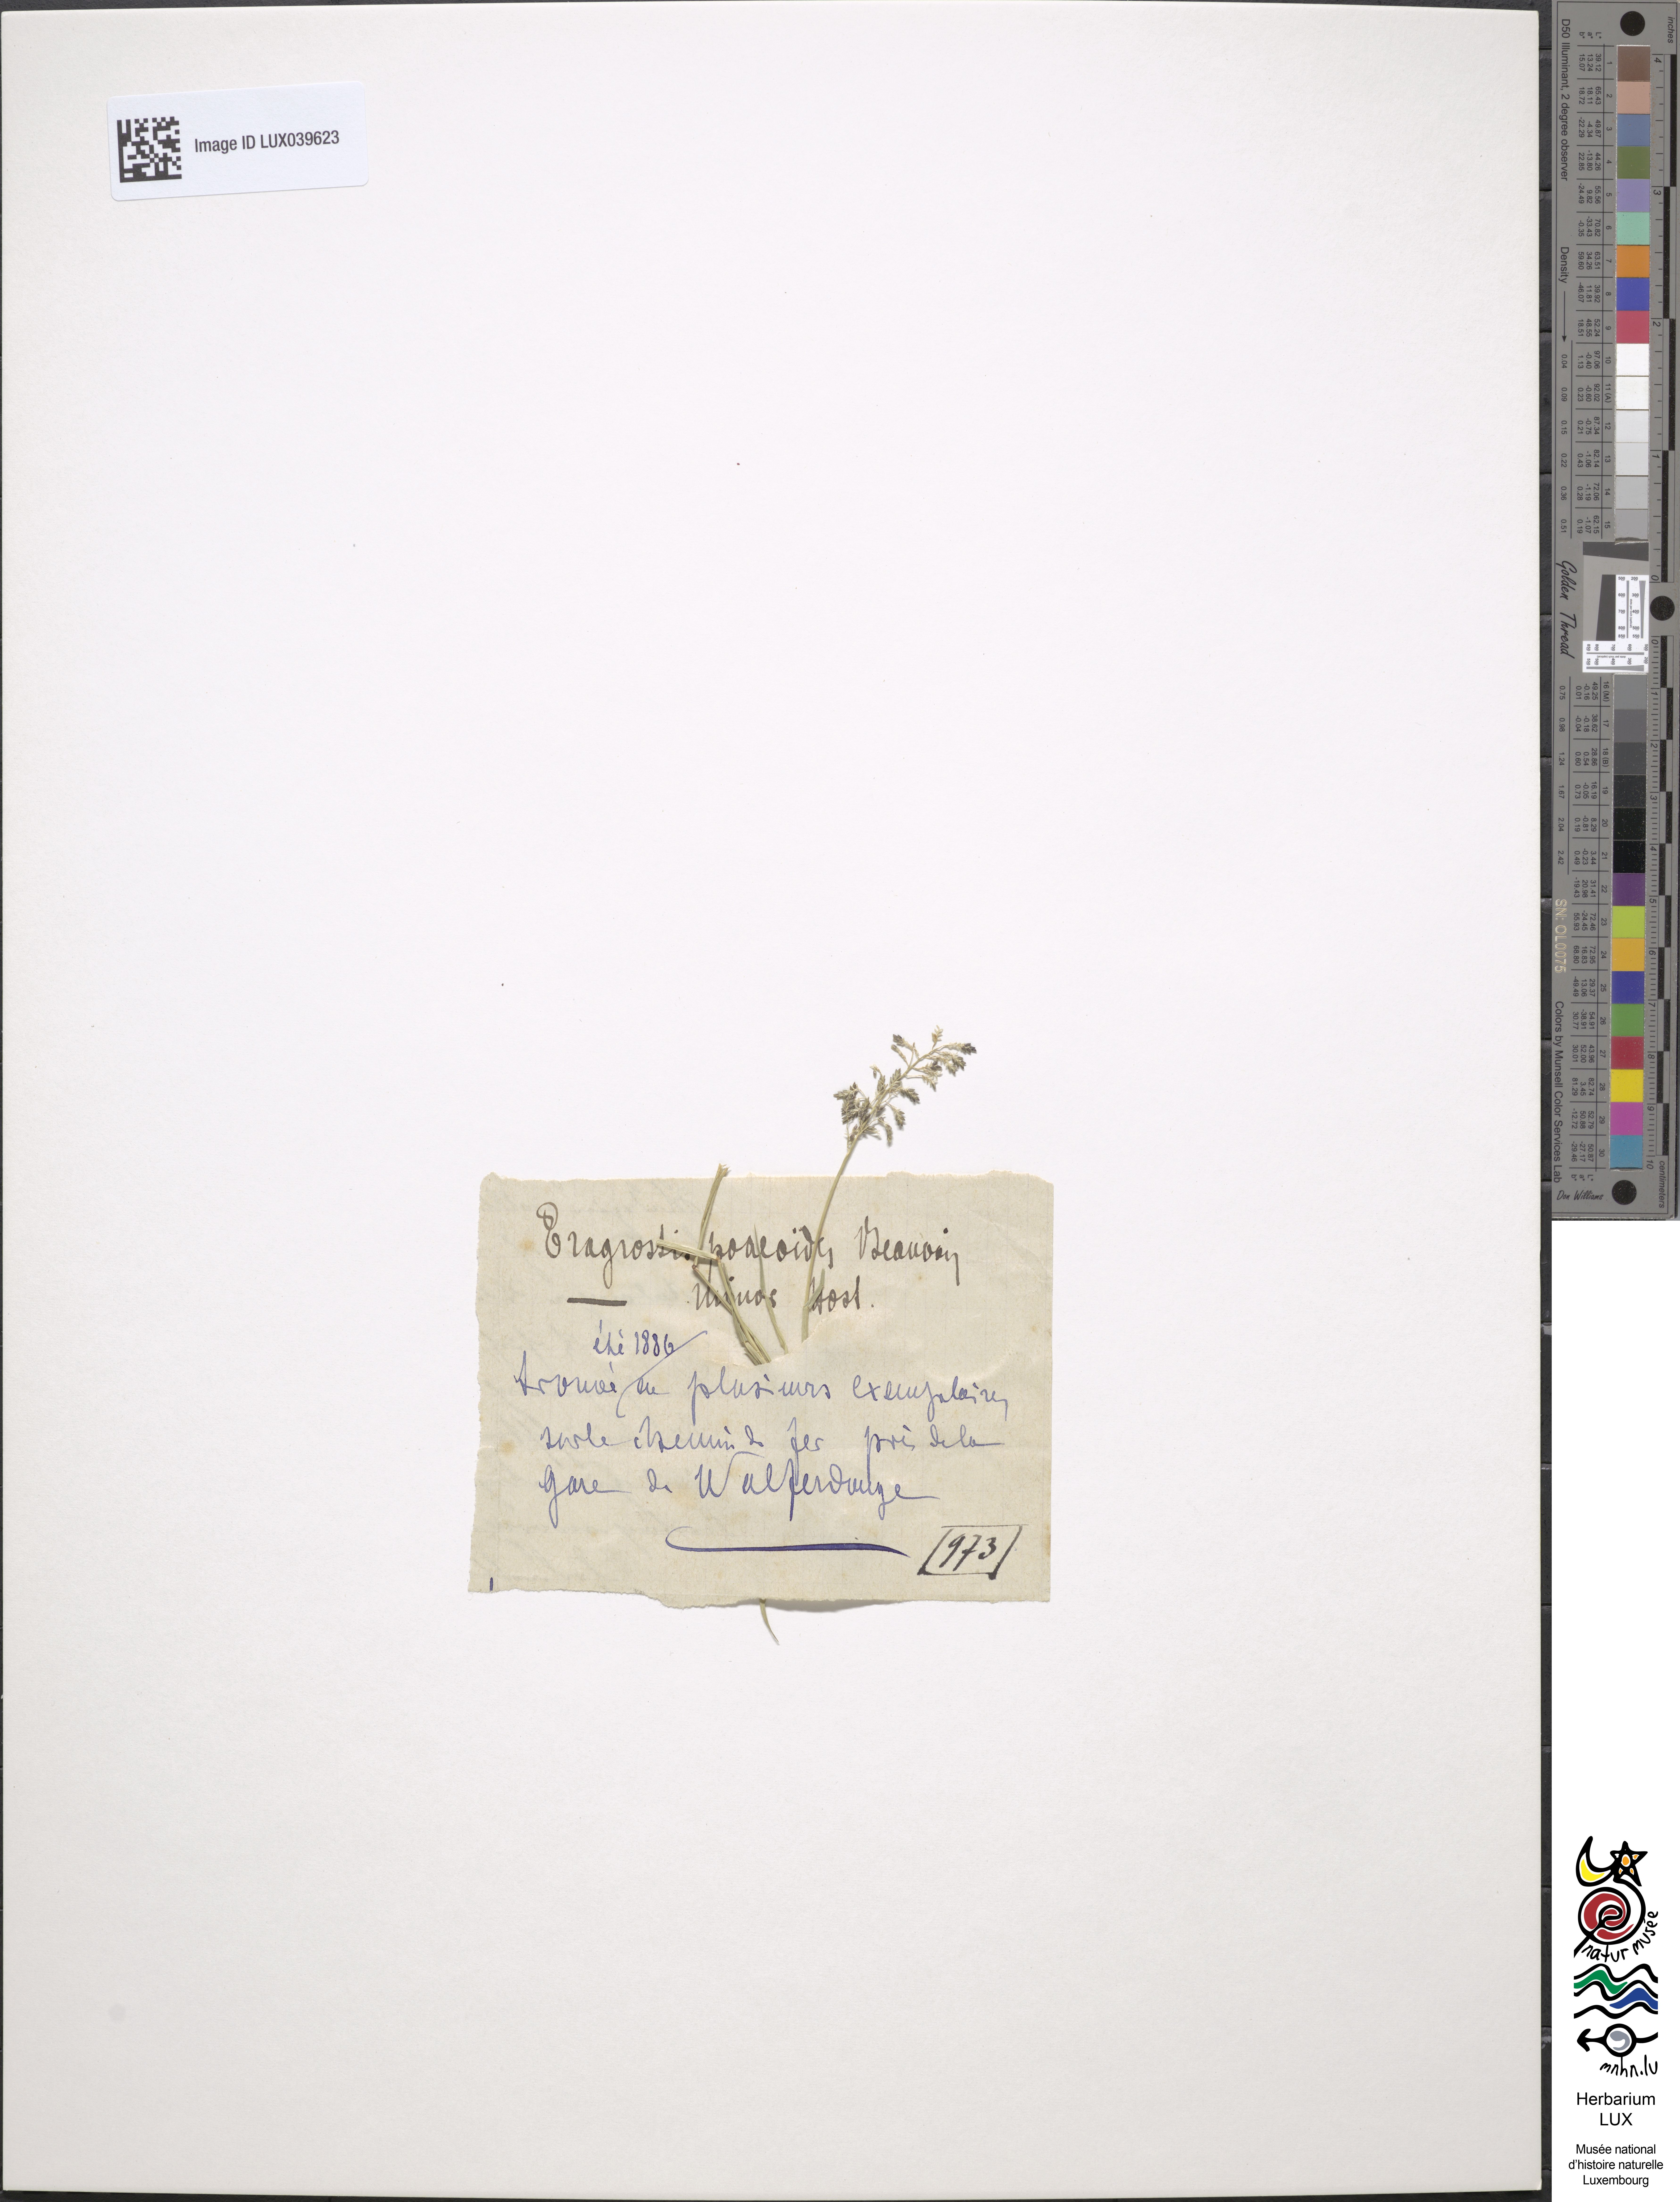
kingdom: Plantae
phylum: Tracheophyta
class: Liliopsida
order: Poales
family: Poaceae
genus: Eragrostis
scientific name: Eragrostis minor
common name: Small love-grass
